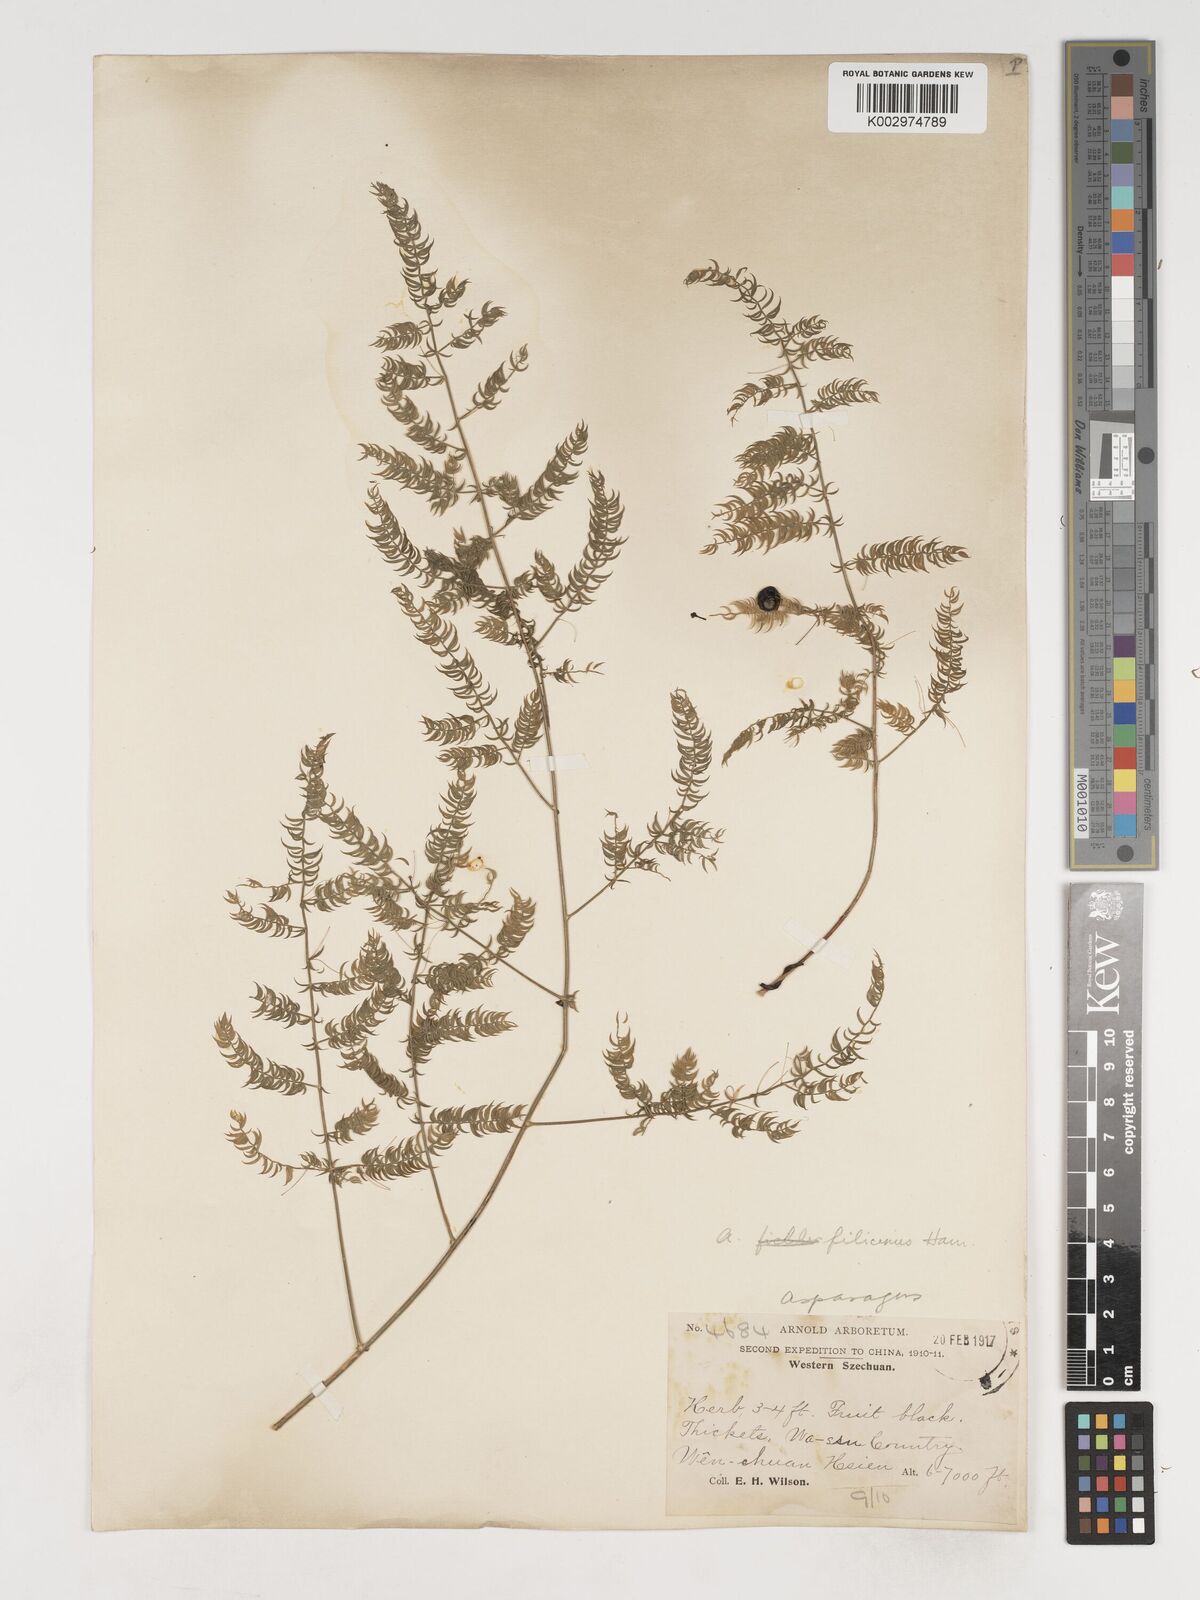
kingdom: Plantae
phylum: Tracheophyta
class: Liliopsida
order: Asparagales
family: Asparagaceae
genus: Asparagus
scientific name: Asparagus filicinus
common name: Fern asparagus
